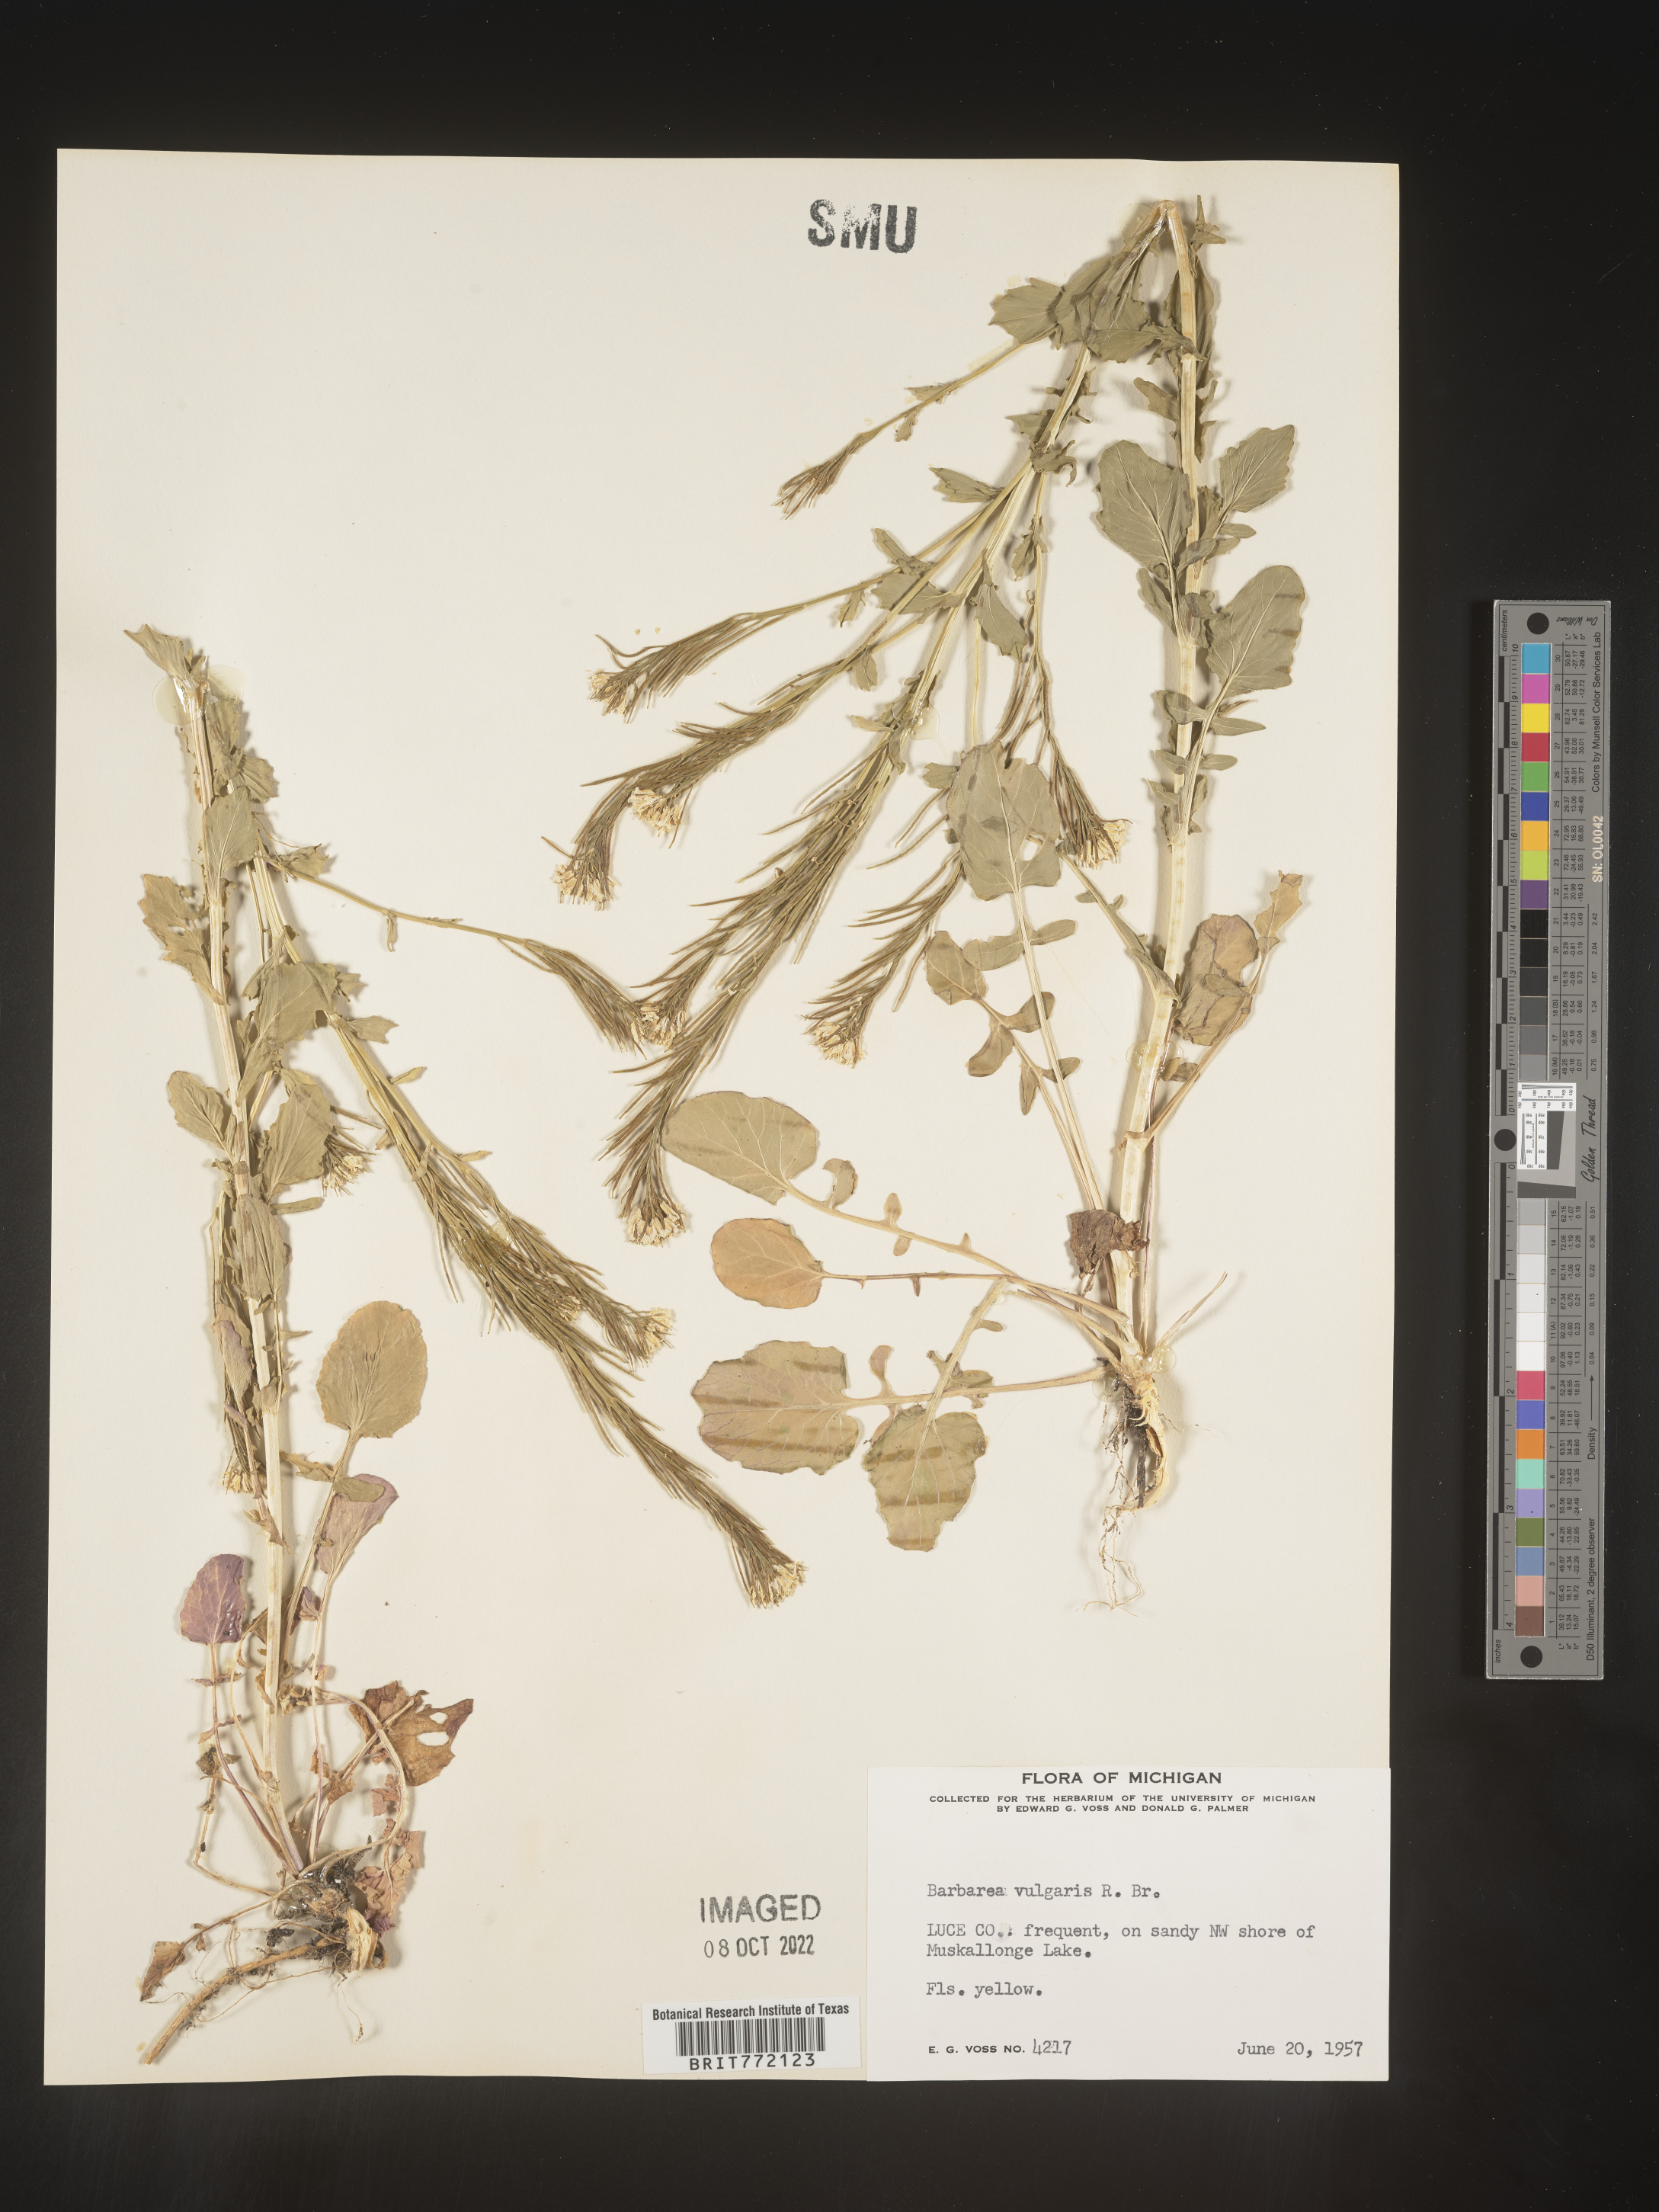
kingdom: Plantae
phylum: Tracheophyta
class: Magnoliopsida
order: Brassicales
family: Brassicaceae
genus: Barbarea
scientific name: Barbarea vulgaris
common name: Cressy-greens
